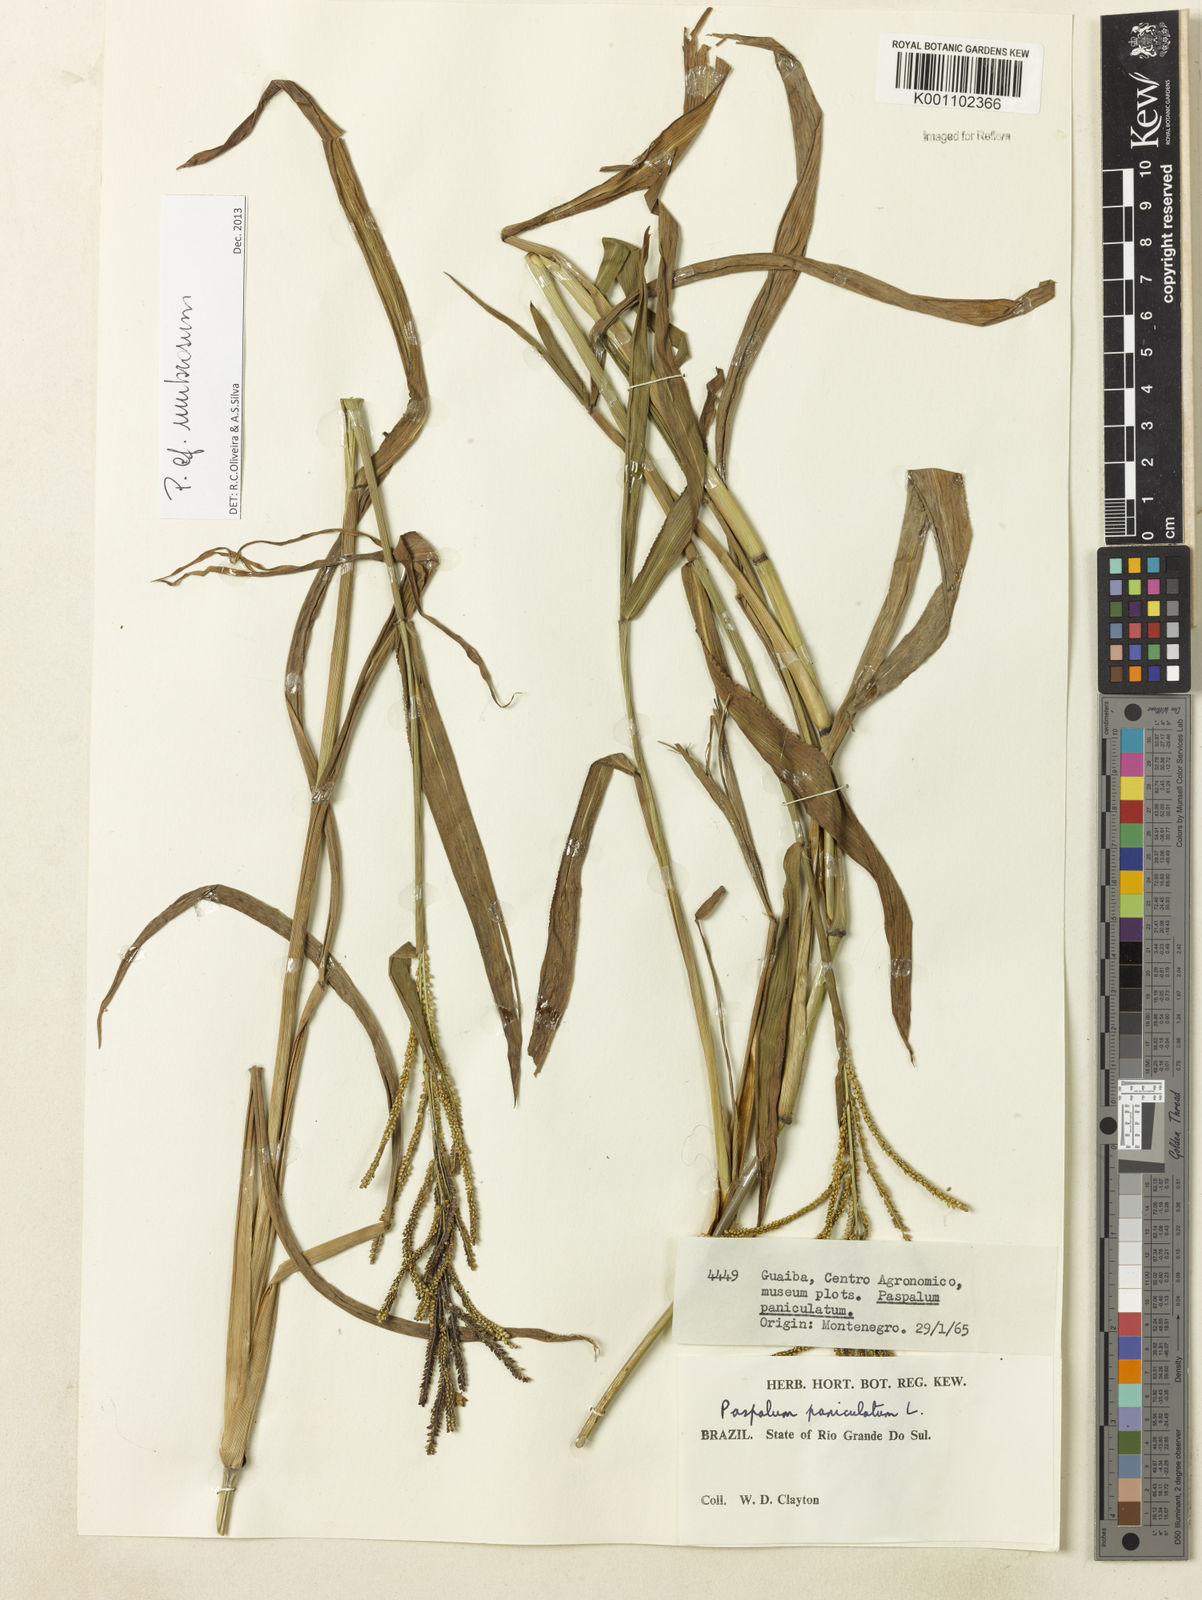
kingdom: Plantae
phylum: Tracheophyta
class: Liliopsida
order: Poales
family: Poaceae
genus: Paspalum
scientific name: Paspalum umbrosum
